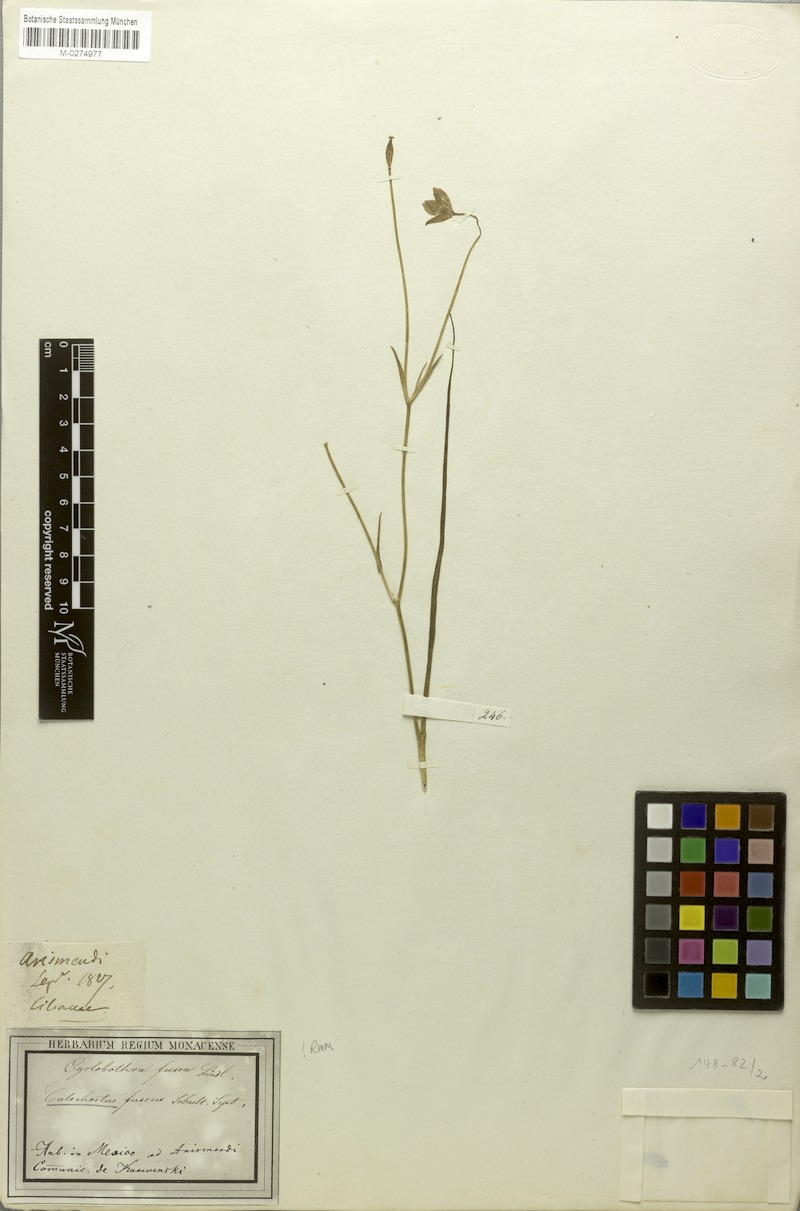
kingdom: Plantae
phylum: Tracheophyta
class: Liliopsida
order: Liliales
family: Liliaceae
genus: Calochortus
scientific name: Calochortus fuscus
